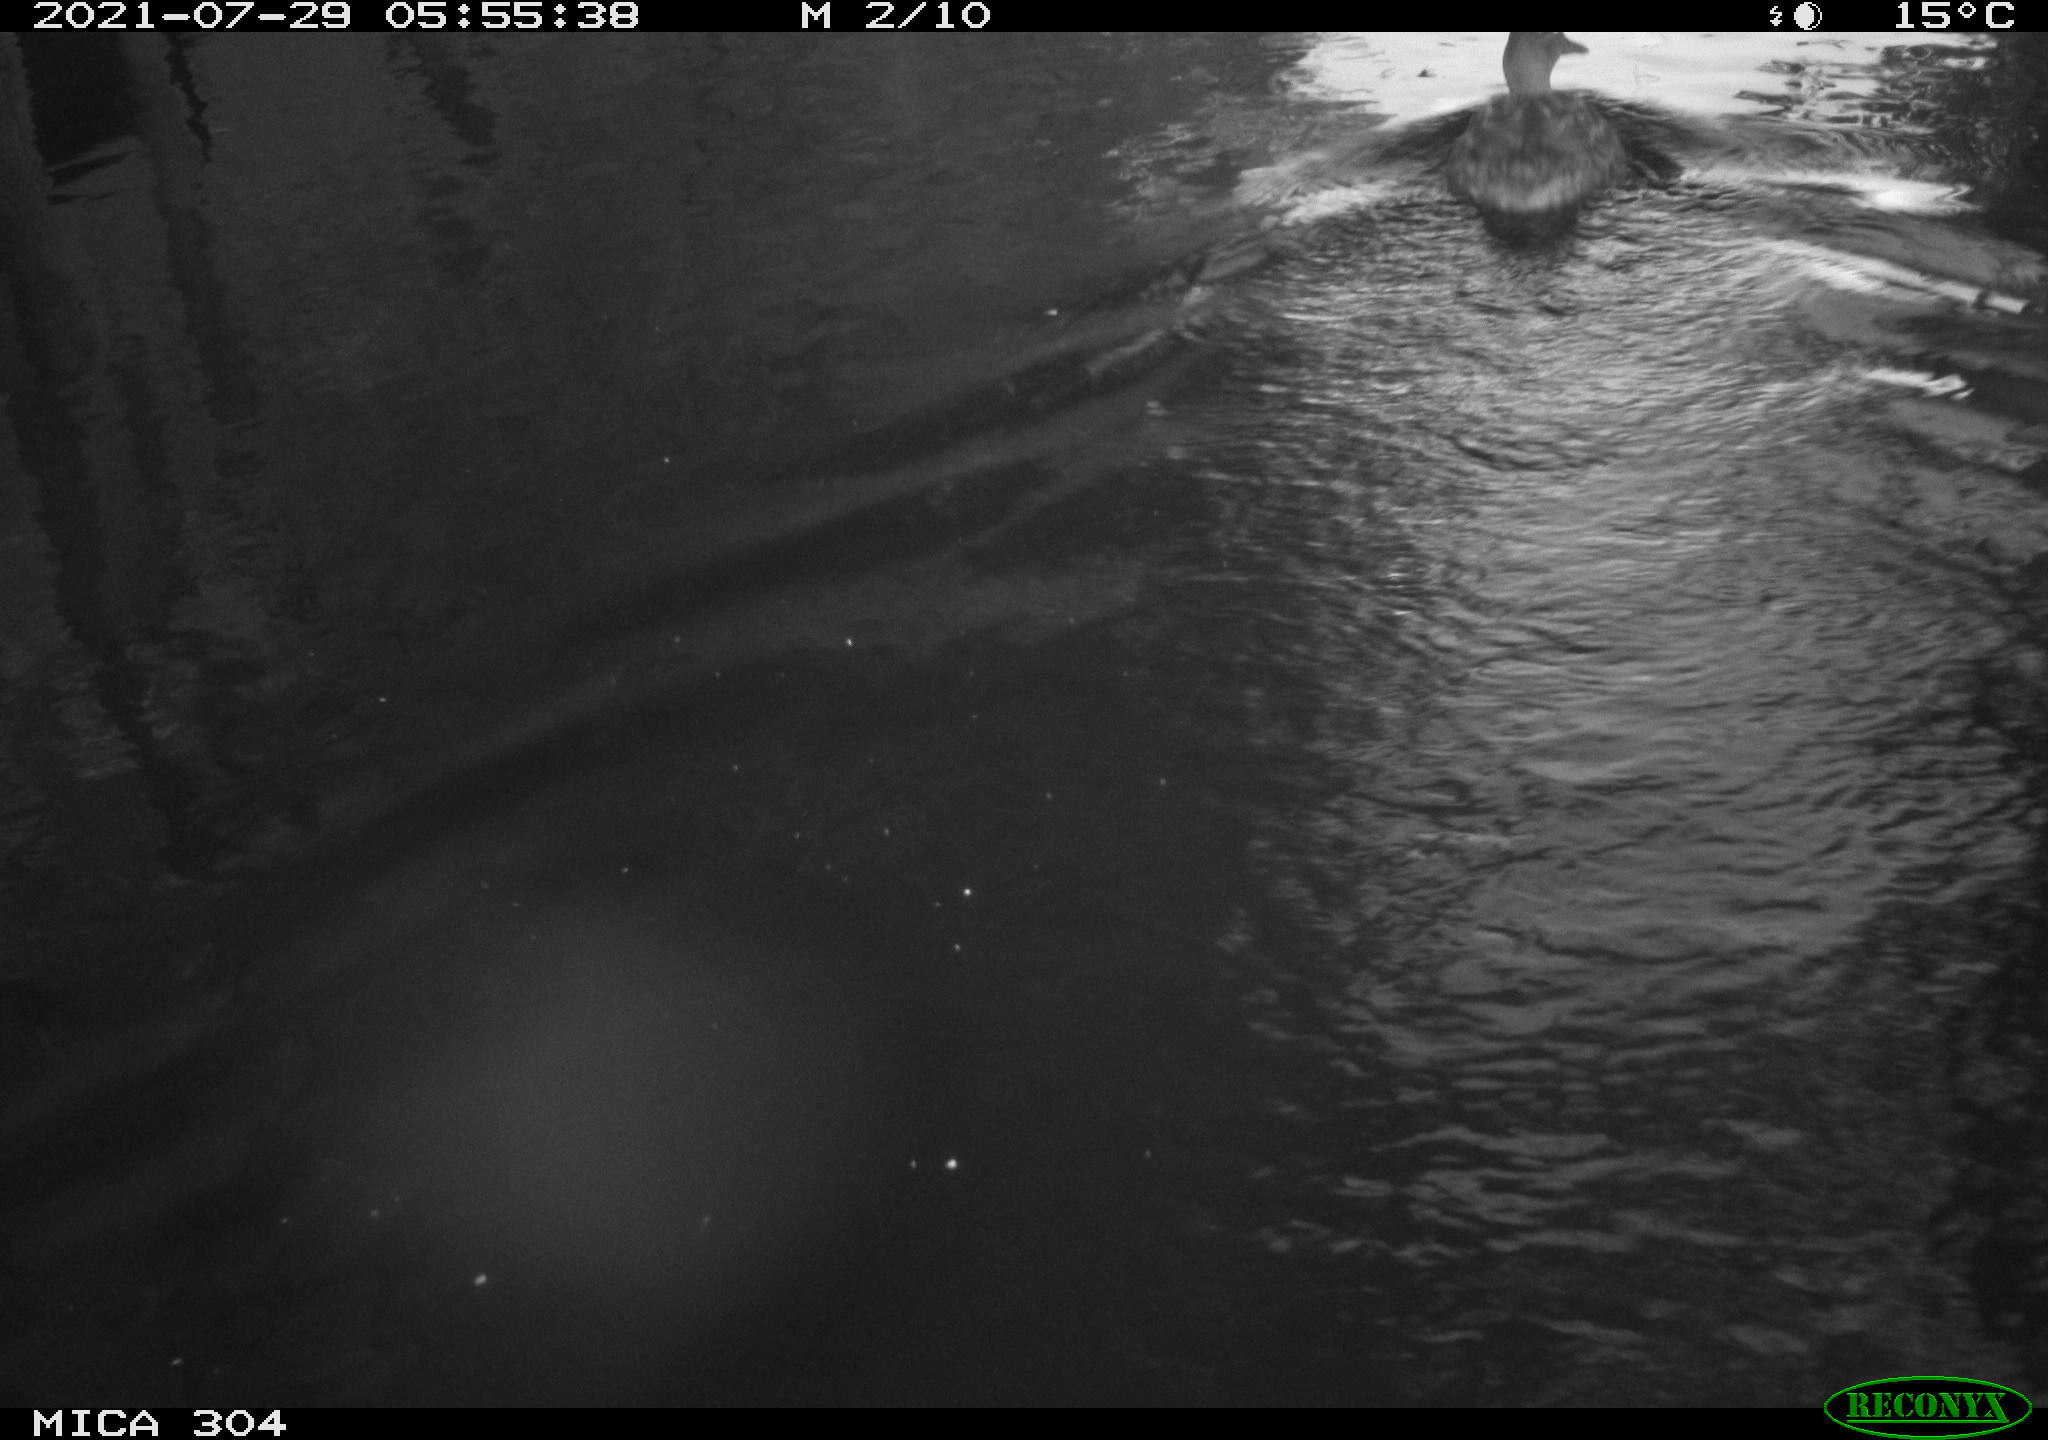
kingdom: Animalia
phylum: Chordata
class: Aves
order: Anseriformes
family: Anatidae
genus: Anas
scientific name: Anas platyrhynchos
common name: Mallard
